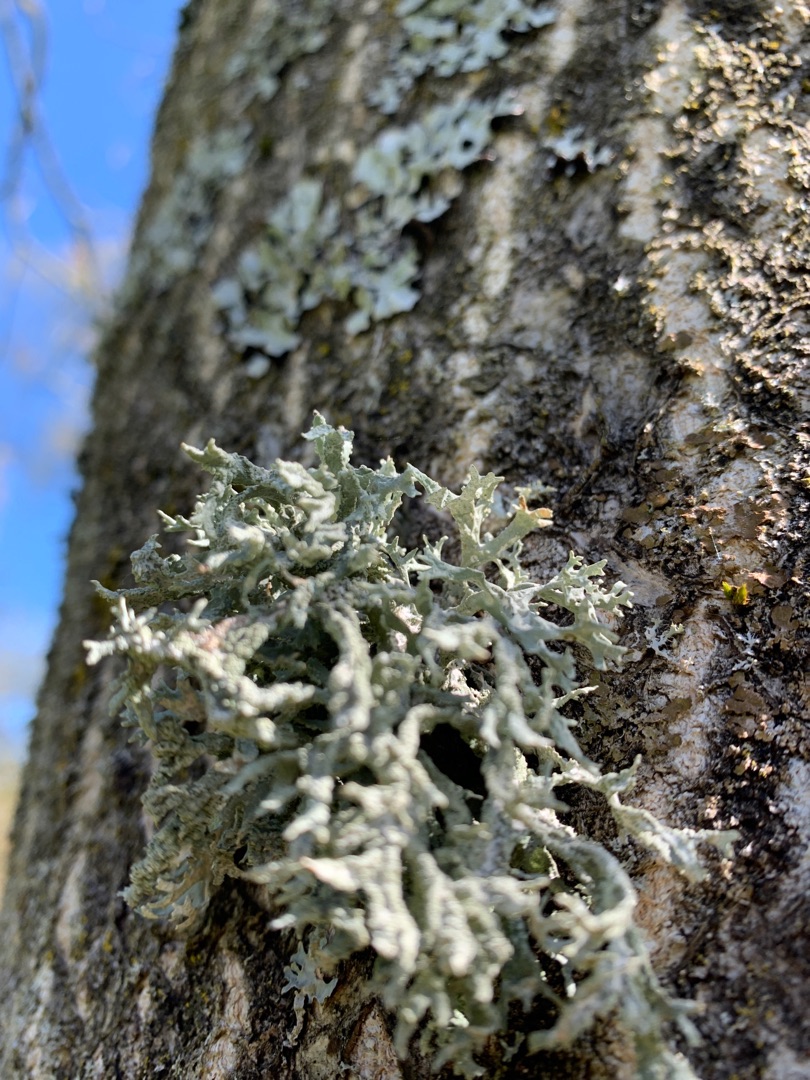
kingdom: Fungi
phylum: Ascomycota
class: Lecanoromycetes
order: Lecanorales
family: Parmeliaceae
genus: Evernia
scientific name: Evernia prunastri
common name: Almindelig slåenlav
